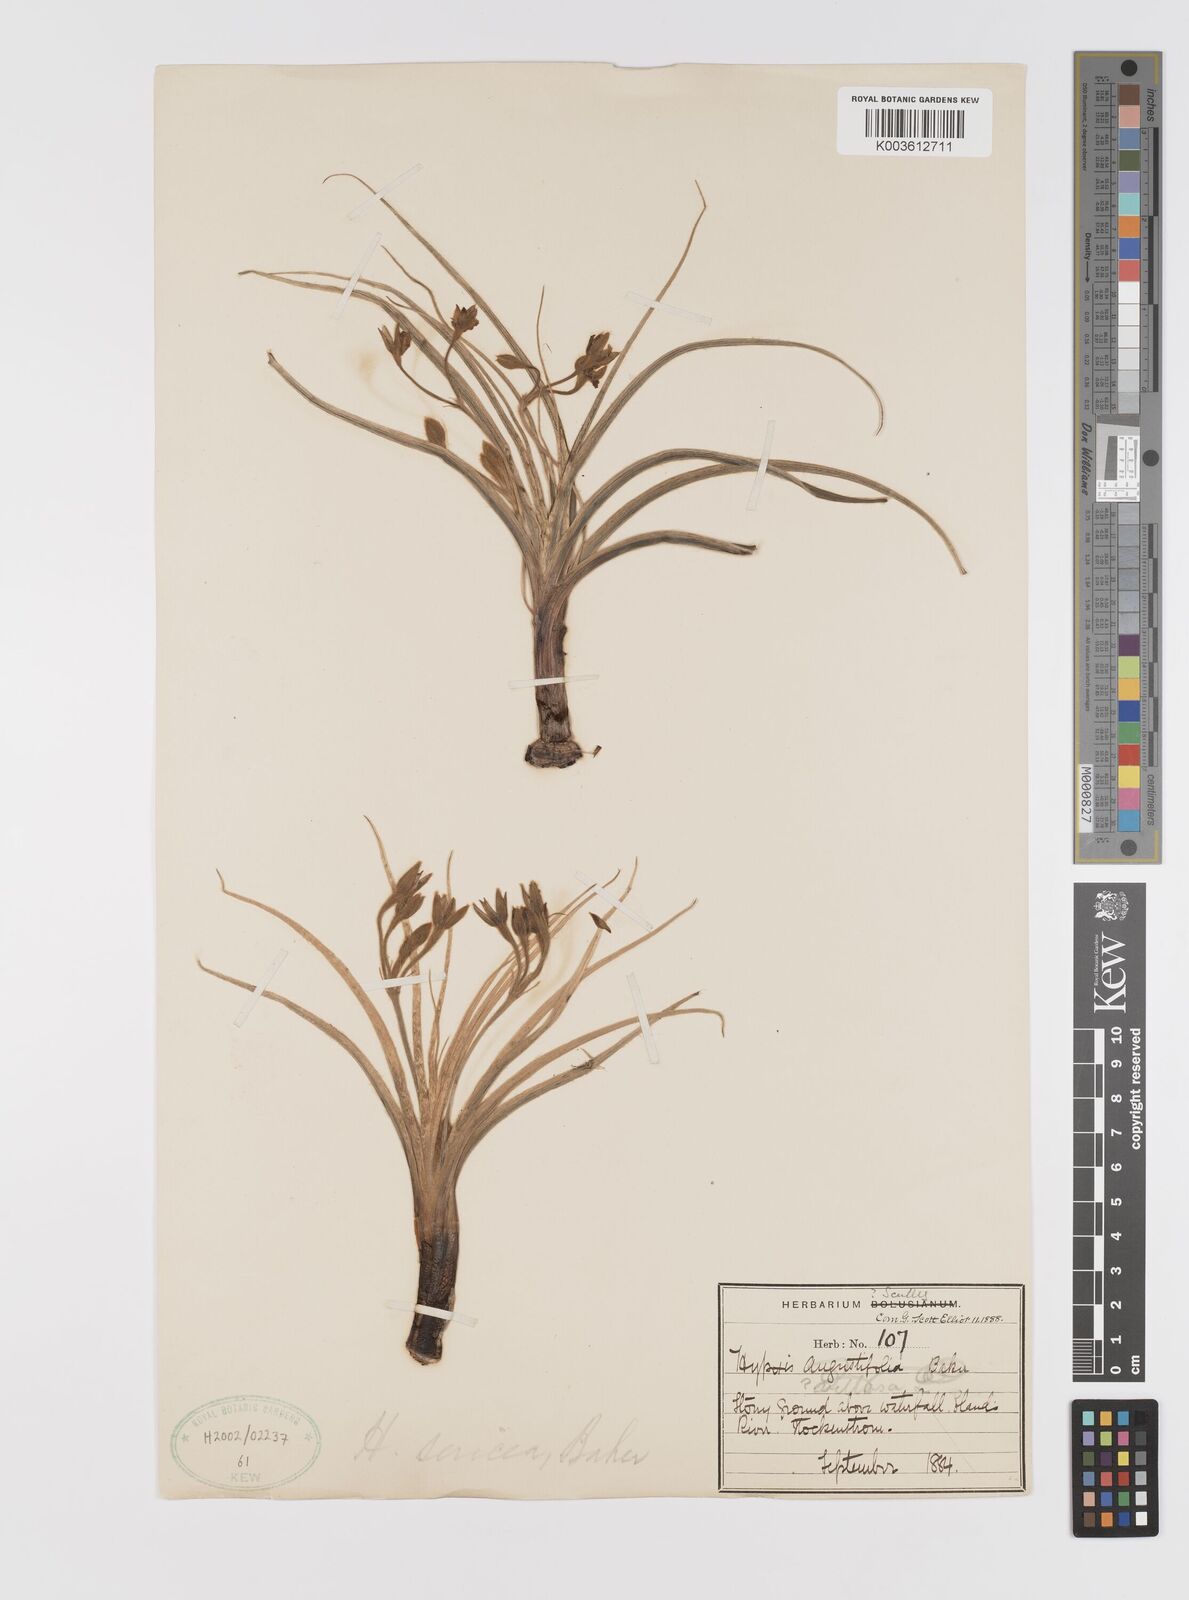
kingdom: Plantae
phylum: Tracheophyta
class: Liliopsida
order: Asparagales
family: Hypoxidaceae
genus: Hypoxis
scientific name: Hypoxis argentea
